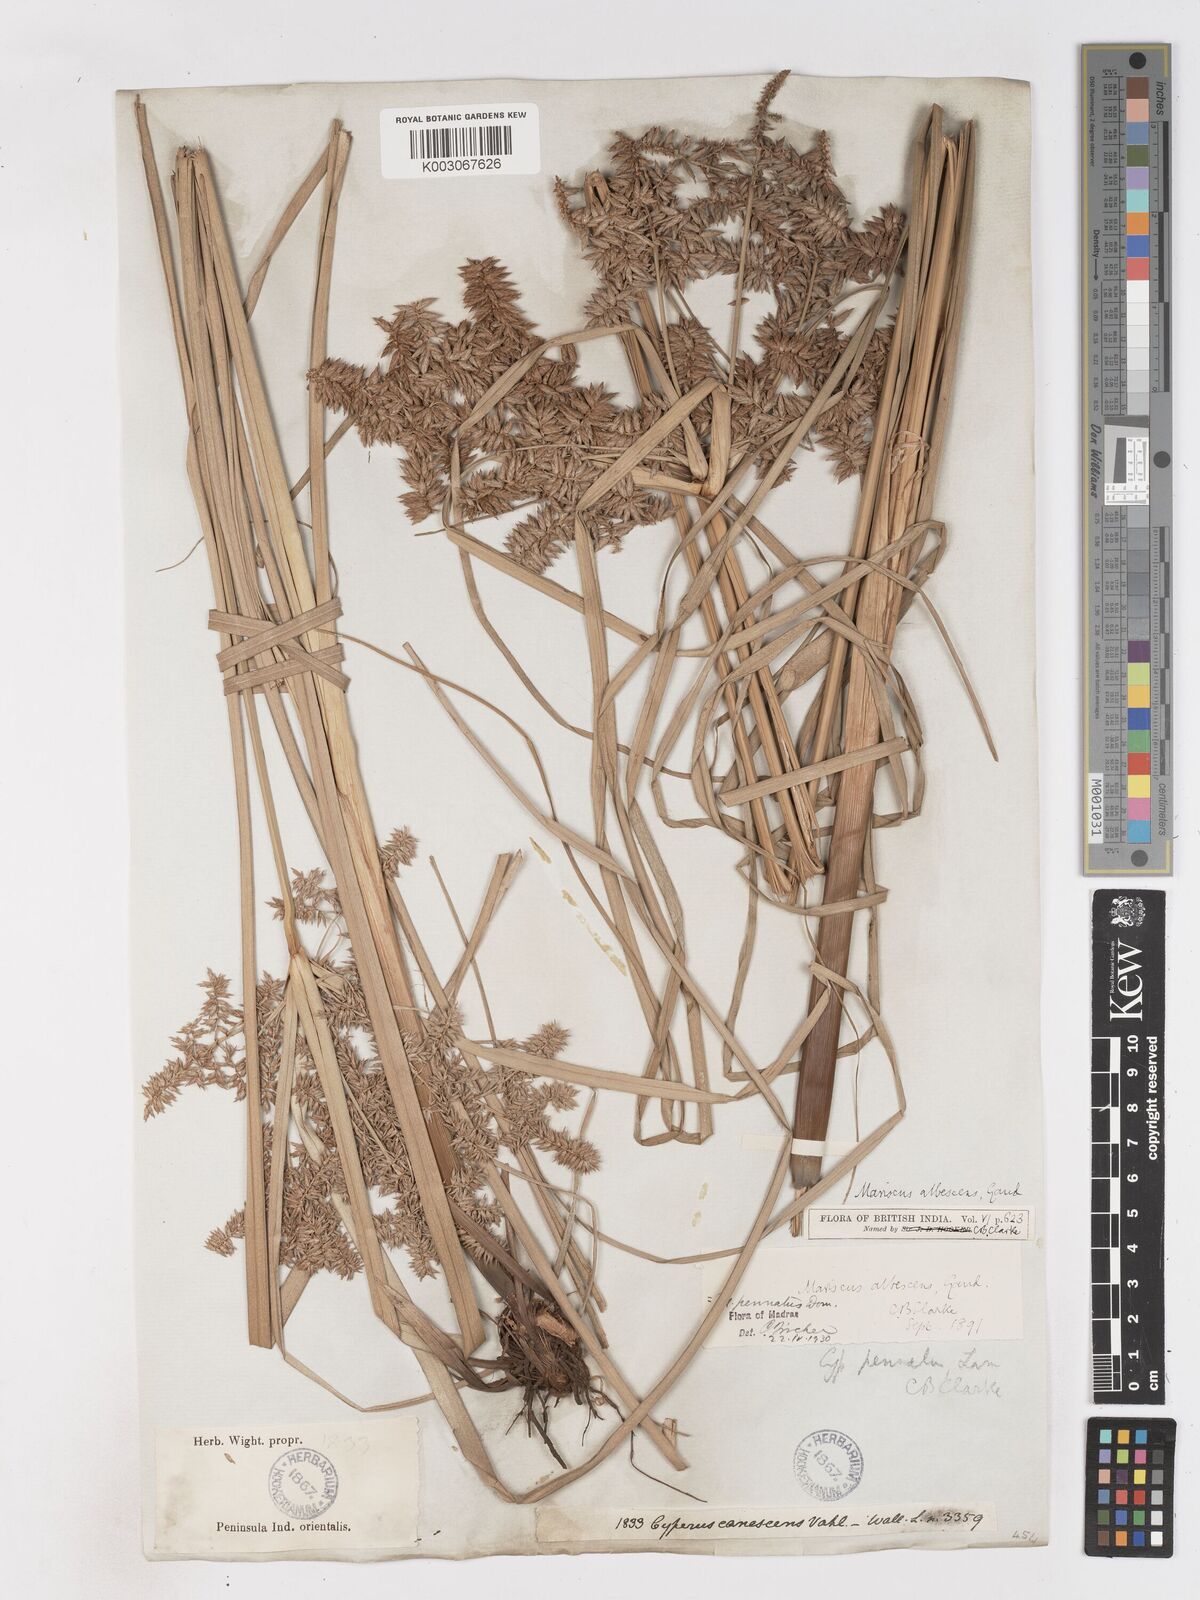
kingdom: Plantae
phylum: Tracheophyta
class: Liliopsida
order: Poales
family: Cyperaceae
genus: Cyperus
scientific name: Cyperus javanicus
